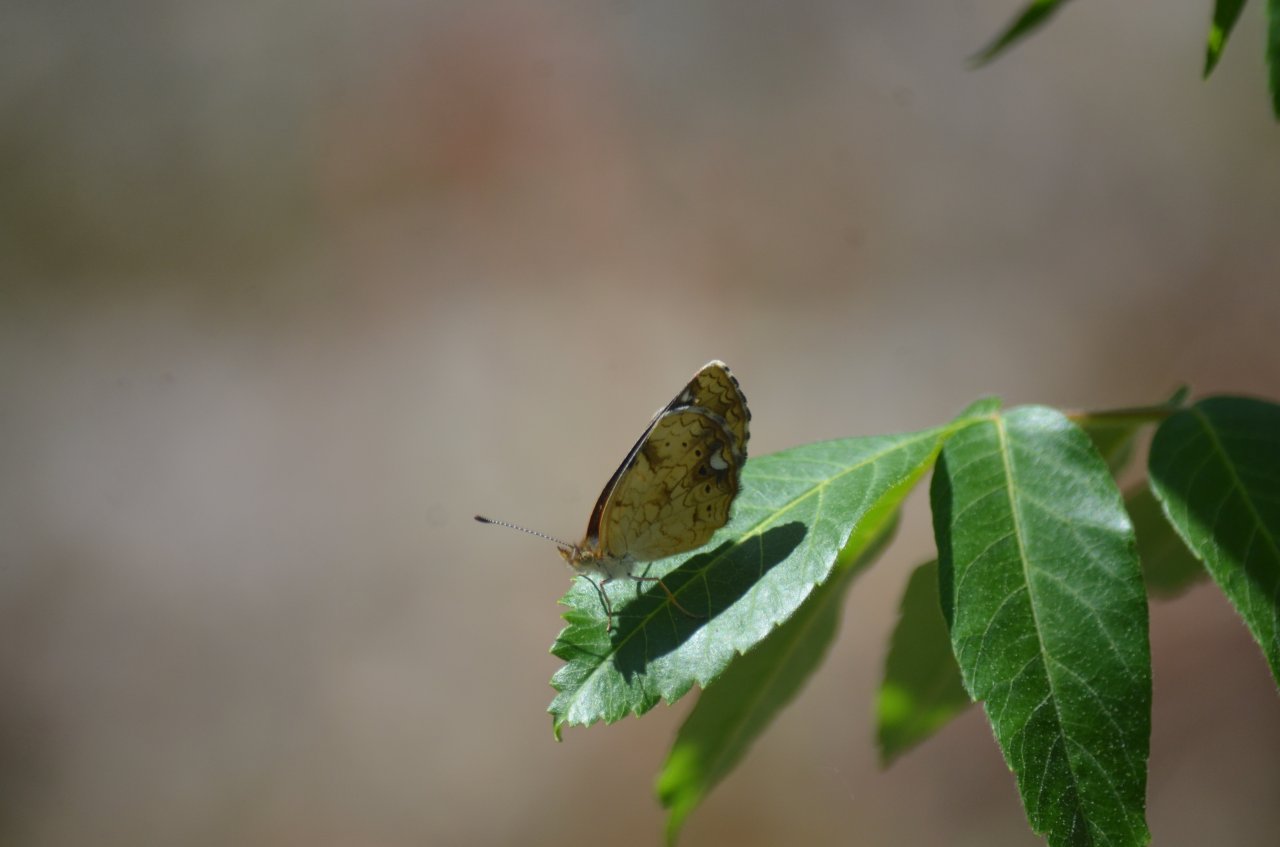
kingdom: Animalia
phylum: Arthropoda
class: Insecta
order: Lepidoptera
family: Nymphalidae
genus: Phyciodes
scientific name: Phyciodes tharos
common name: Northern Crescent
